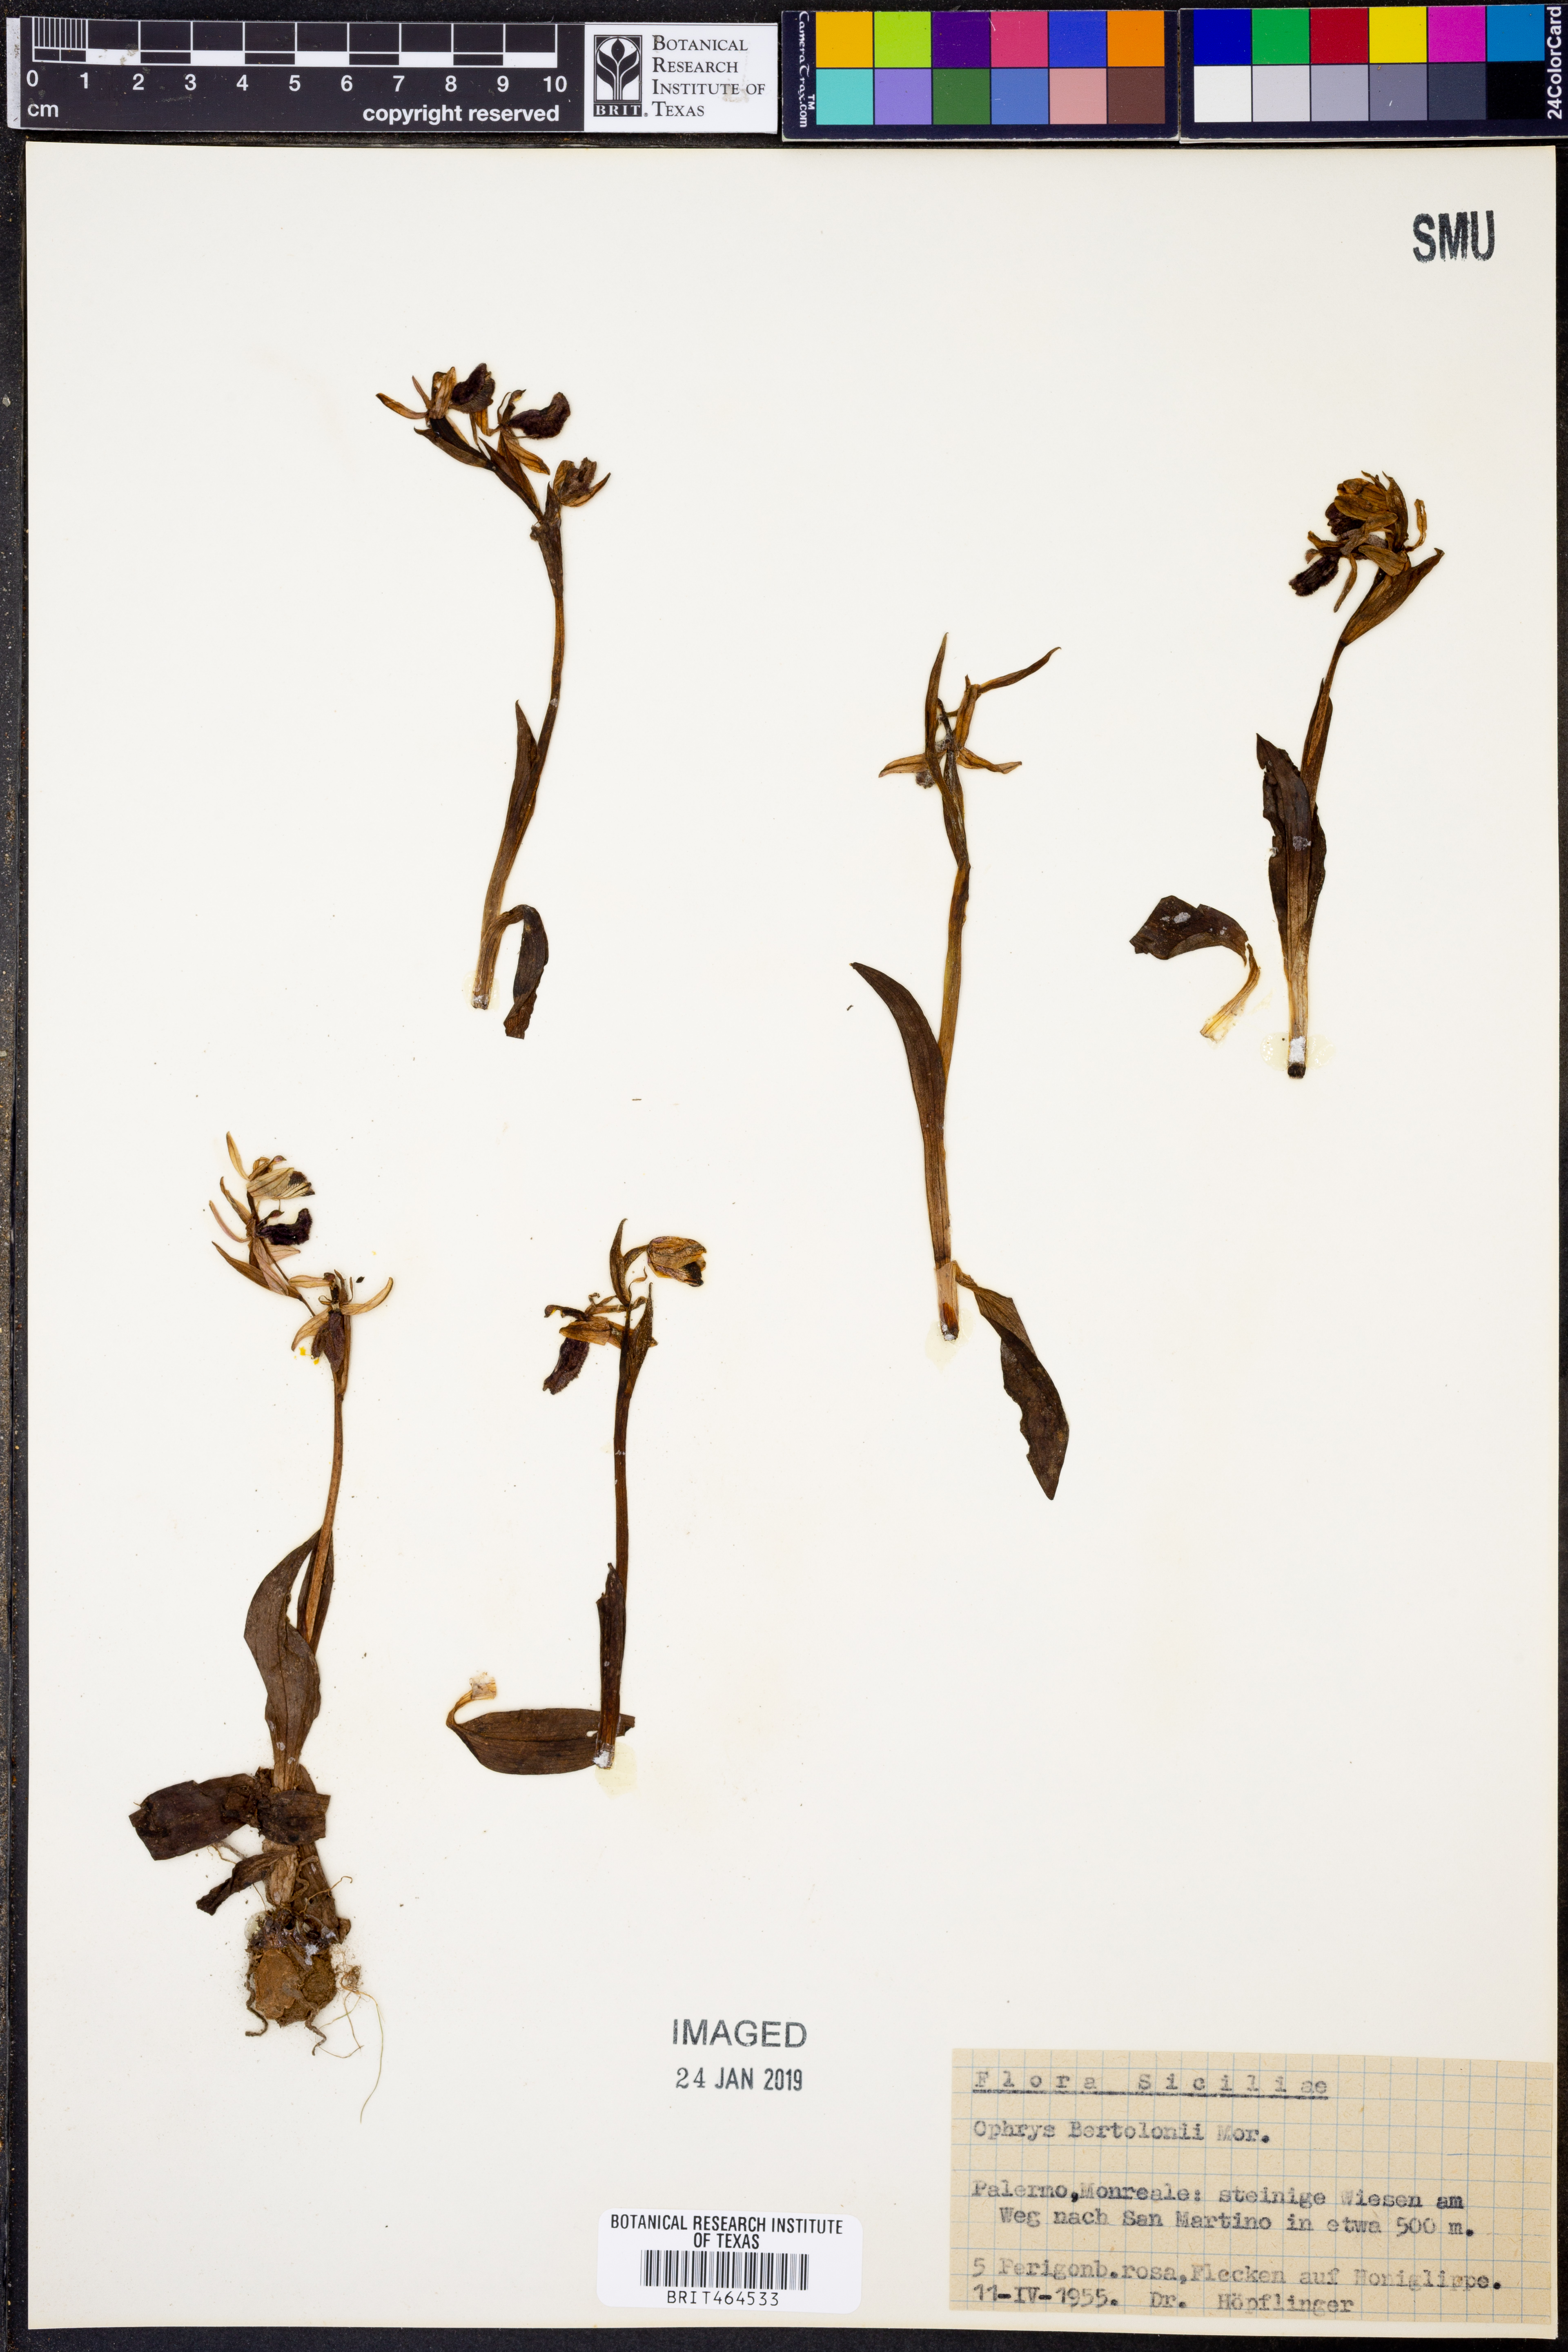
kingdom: Plantae
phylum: Tracheophyta
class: Liliopsida
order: Asparagales
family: Orchidaceae
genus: Ophrys
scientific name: Ophrys bertolonii
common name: Bertoloni's bee orchid
